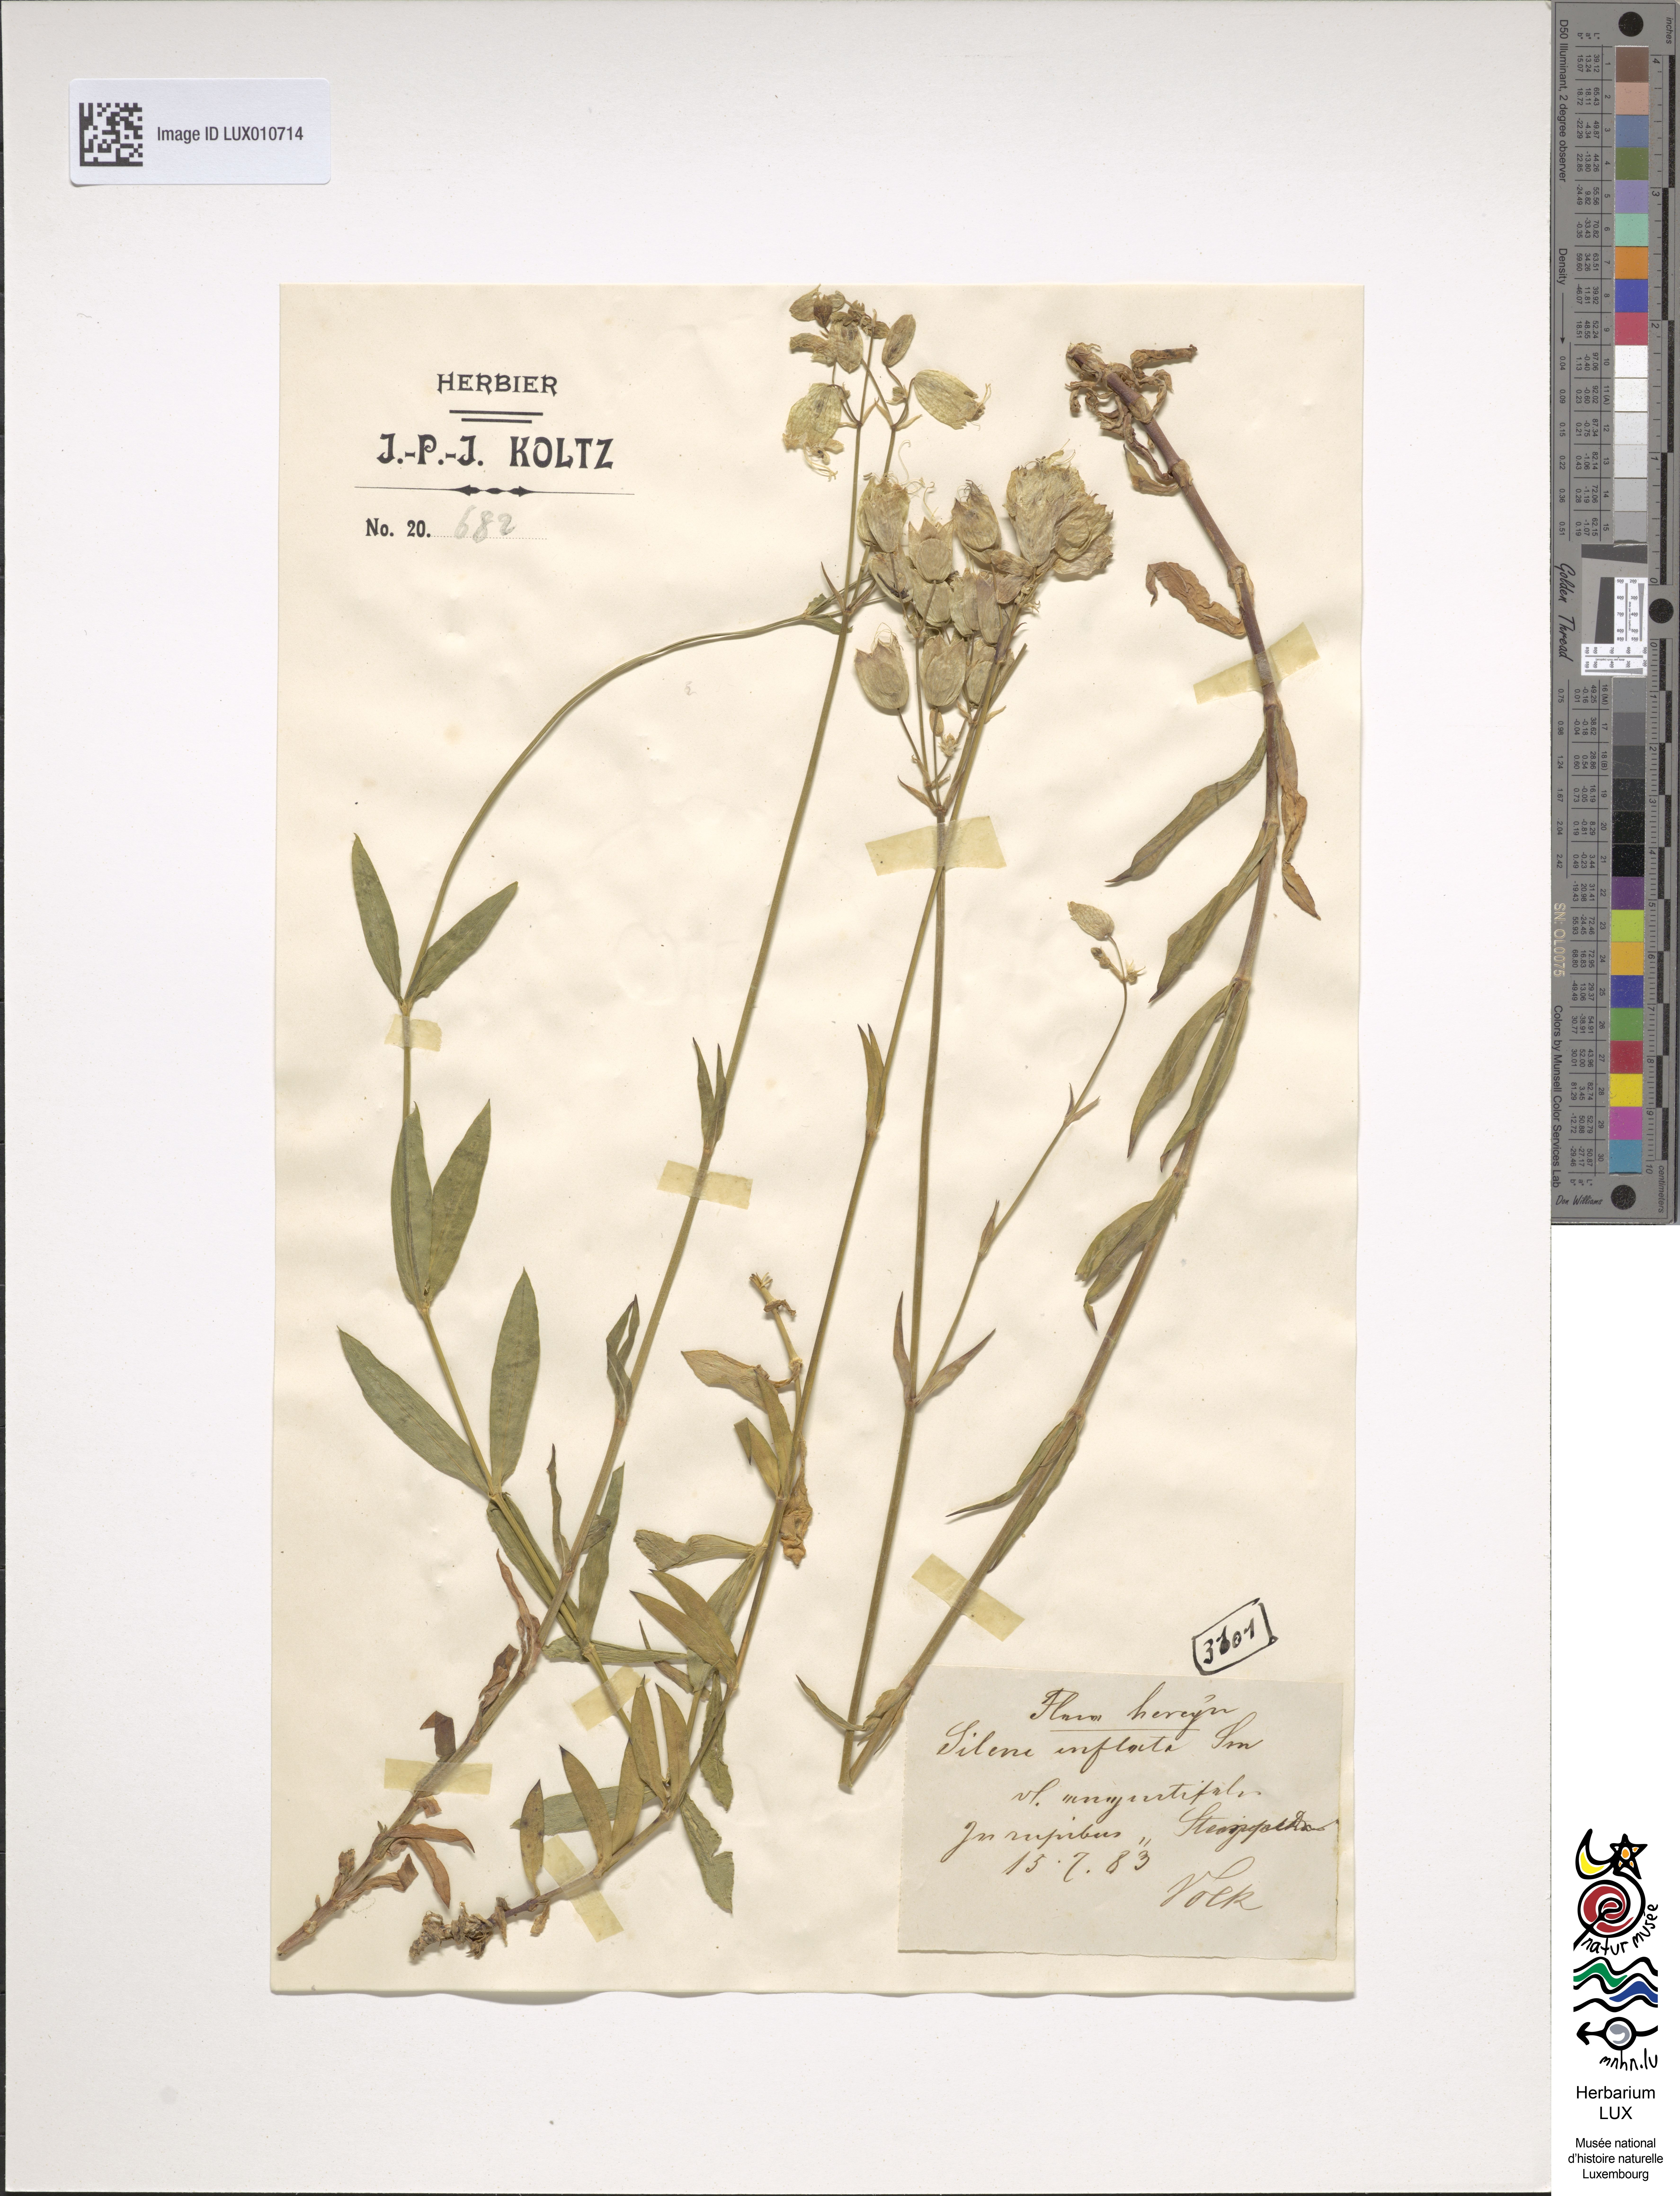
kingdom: Plantae
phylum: Tracheophyta
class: Magnoliopsida
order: Caryophyllales
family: Caryophyllaceae
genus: Silene
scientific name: Silene vulgaris
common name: Bladder campion
